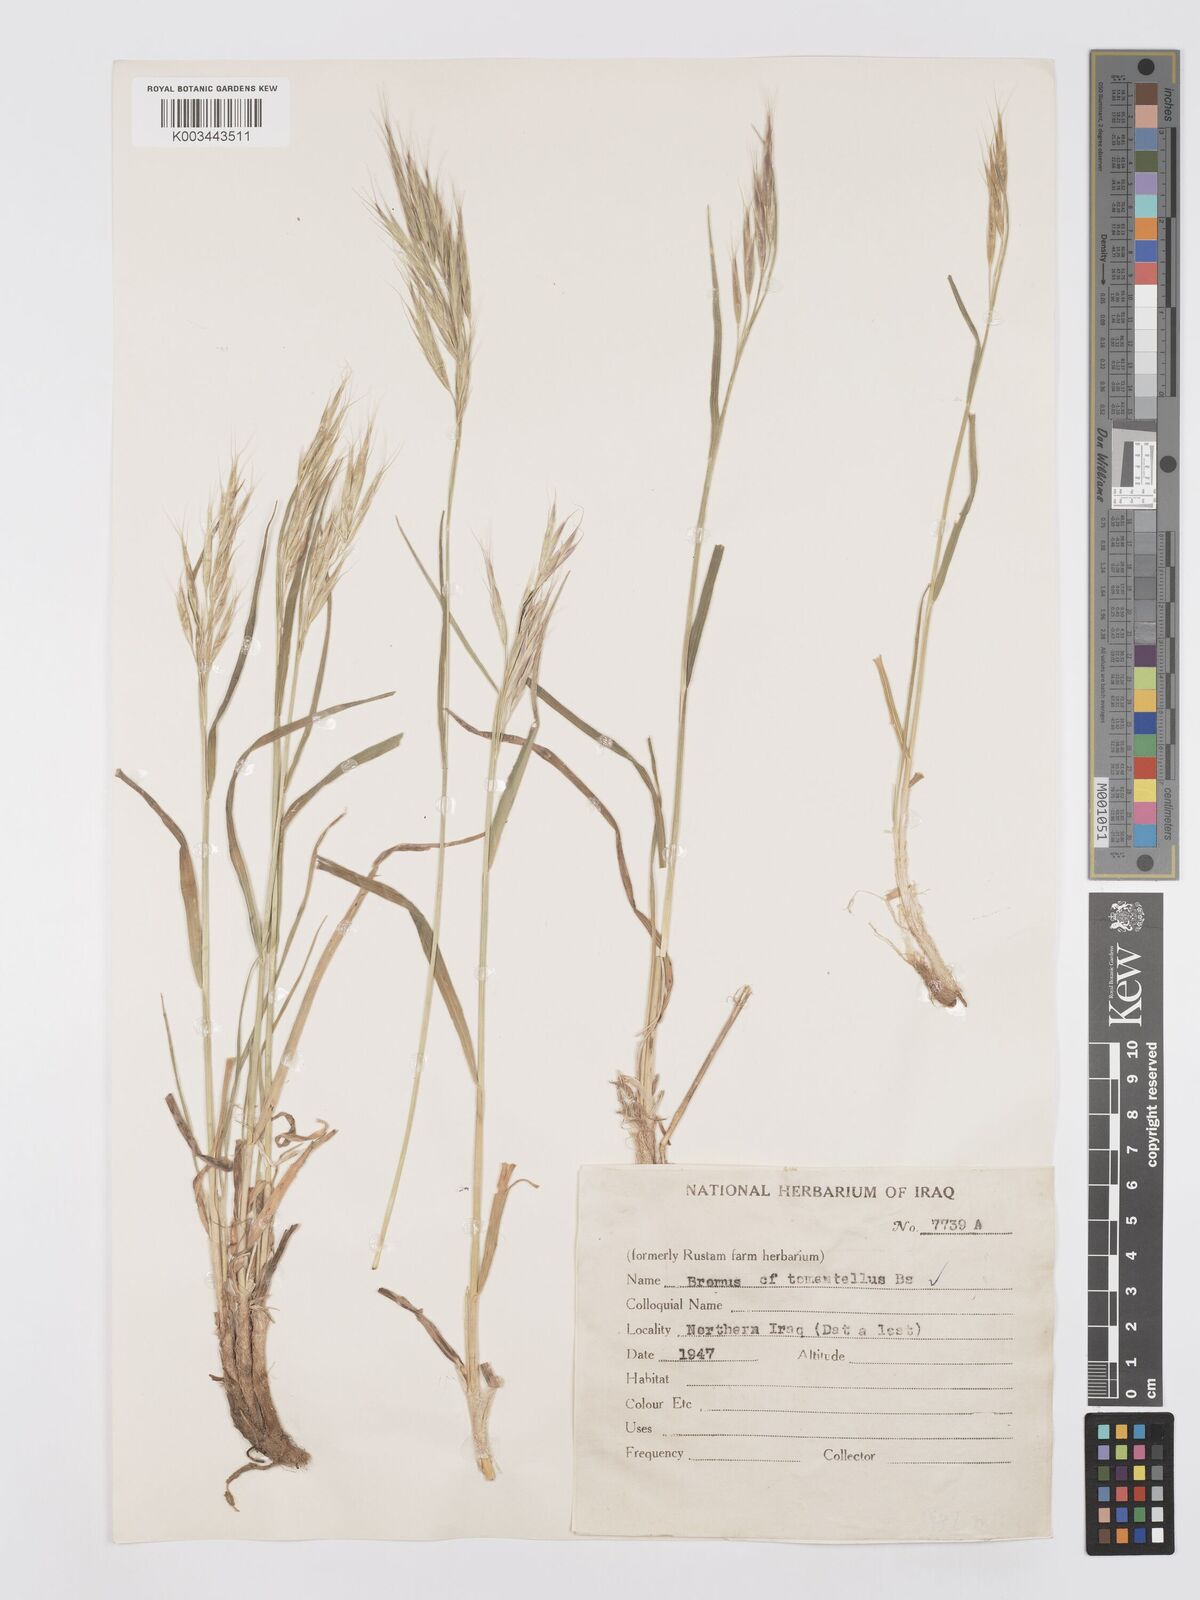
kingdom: Plantae
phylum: Tracheophyta
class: Liliopsida
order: Poales
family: Poaceae
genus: Bromus
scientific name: Bromus tomentellus
